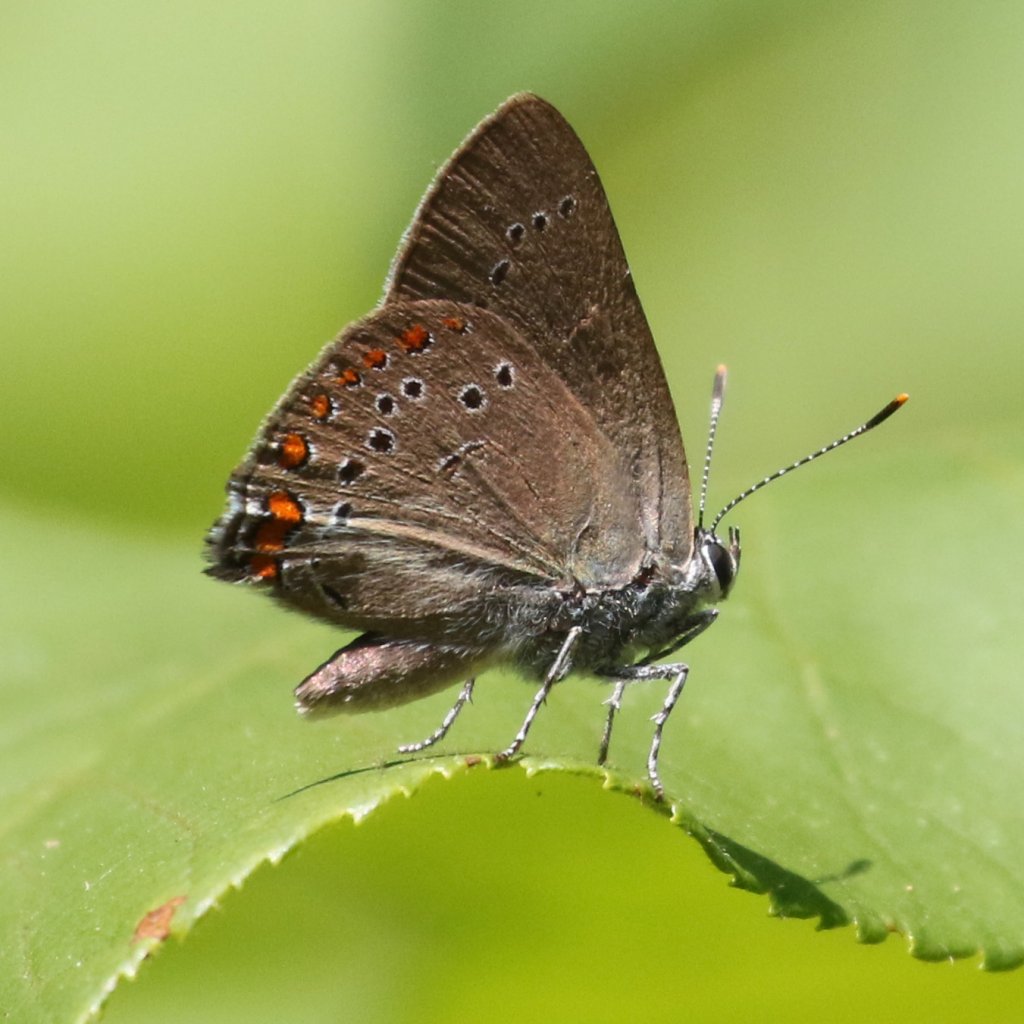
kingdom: Animalia
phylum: Arthropoda
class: Insecta
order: Lepidoptera
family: Lycaenidae
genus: Harkenclenus
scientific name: Harkenclenus titus
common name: Coral Hairstreak
